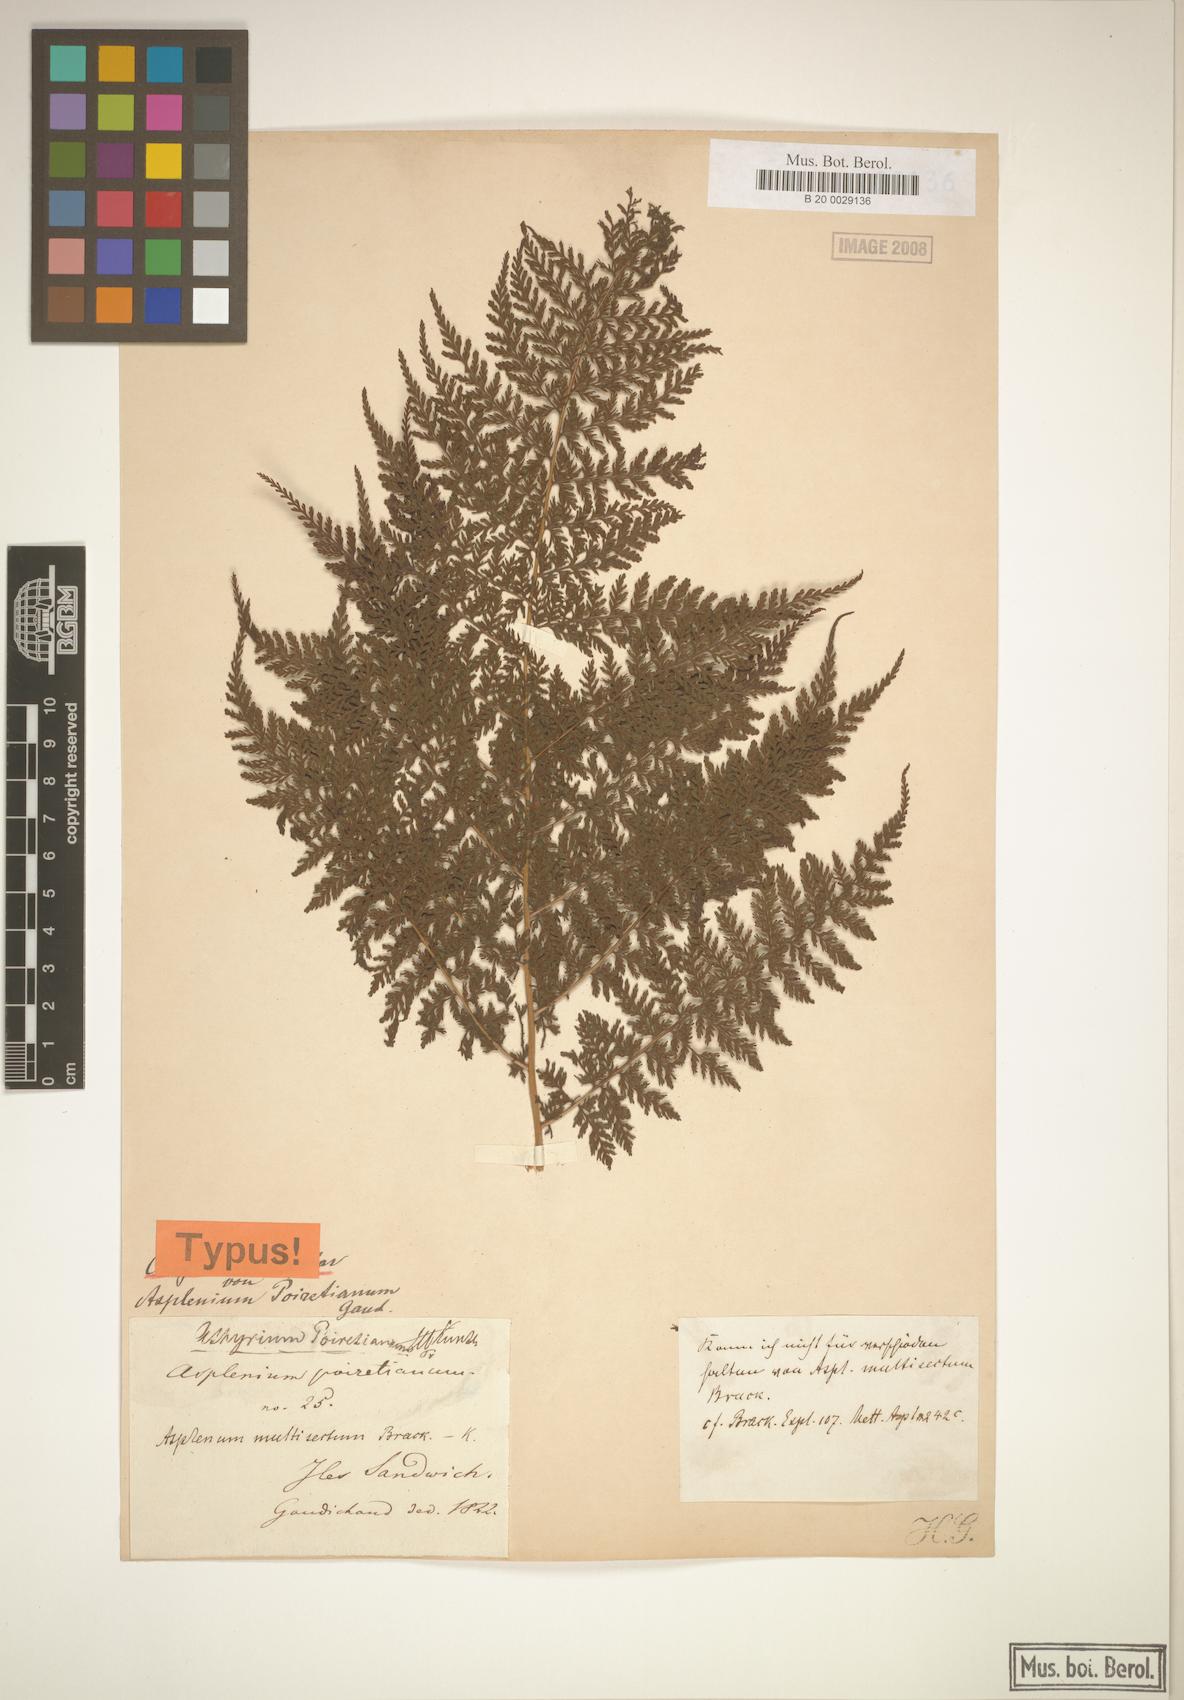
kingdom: Plantae
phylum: Tracheophyta
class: Polypodiopsida
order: Polypodiales
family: Athyriaceae
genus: Athyrium
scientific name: Athyrium microphyllum
